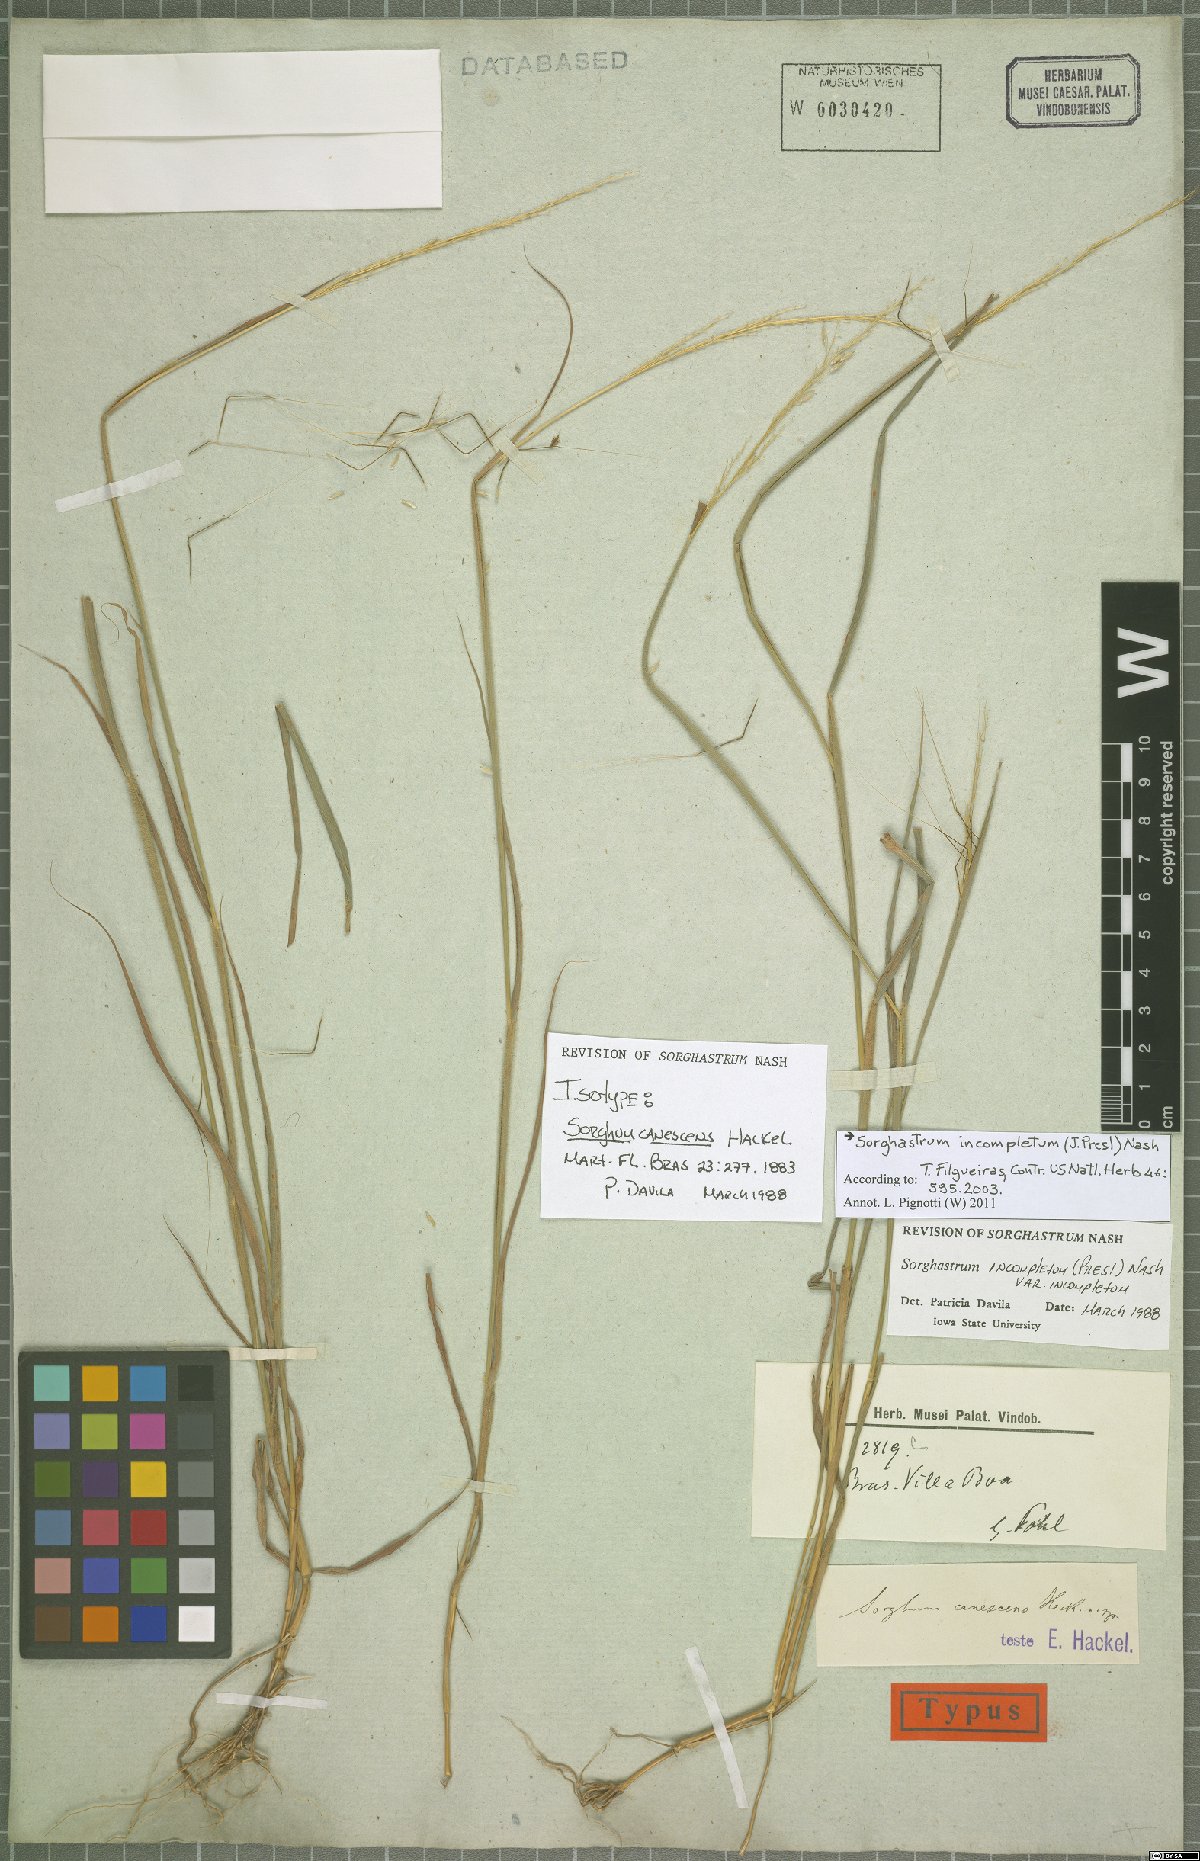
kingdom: Plantae
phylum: Tracheophyta
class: Liliopsida
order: Poales
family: Poaceae
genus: Sorghastrum
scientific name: Sorghastrum incompletum
